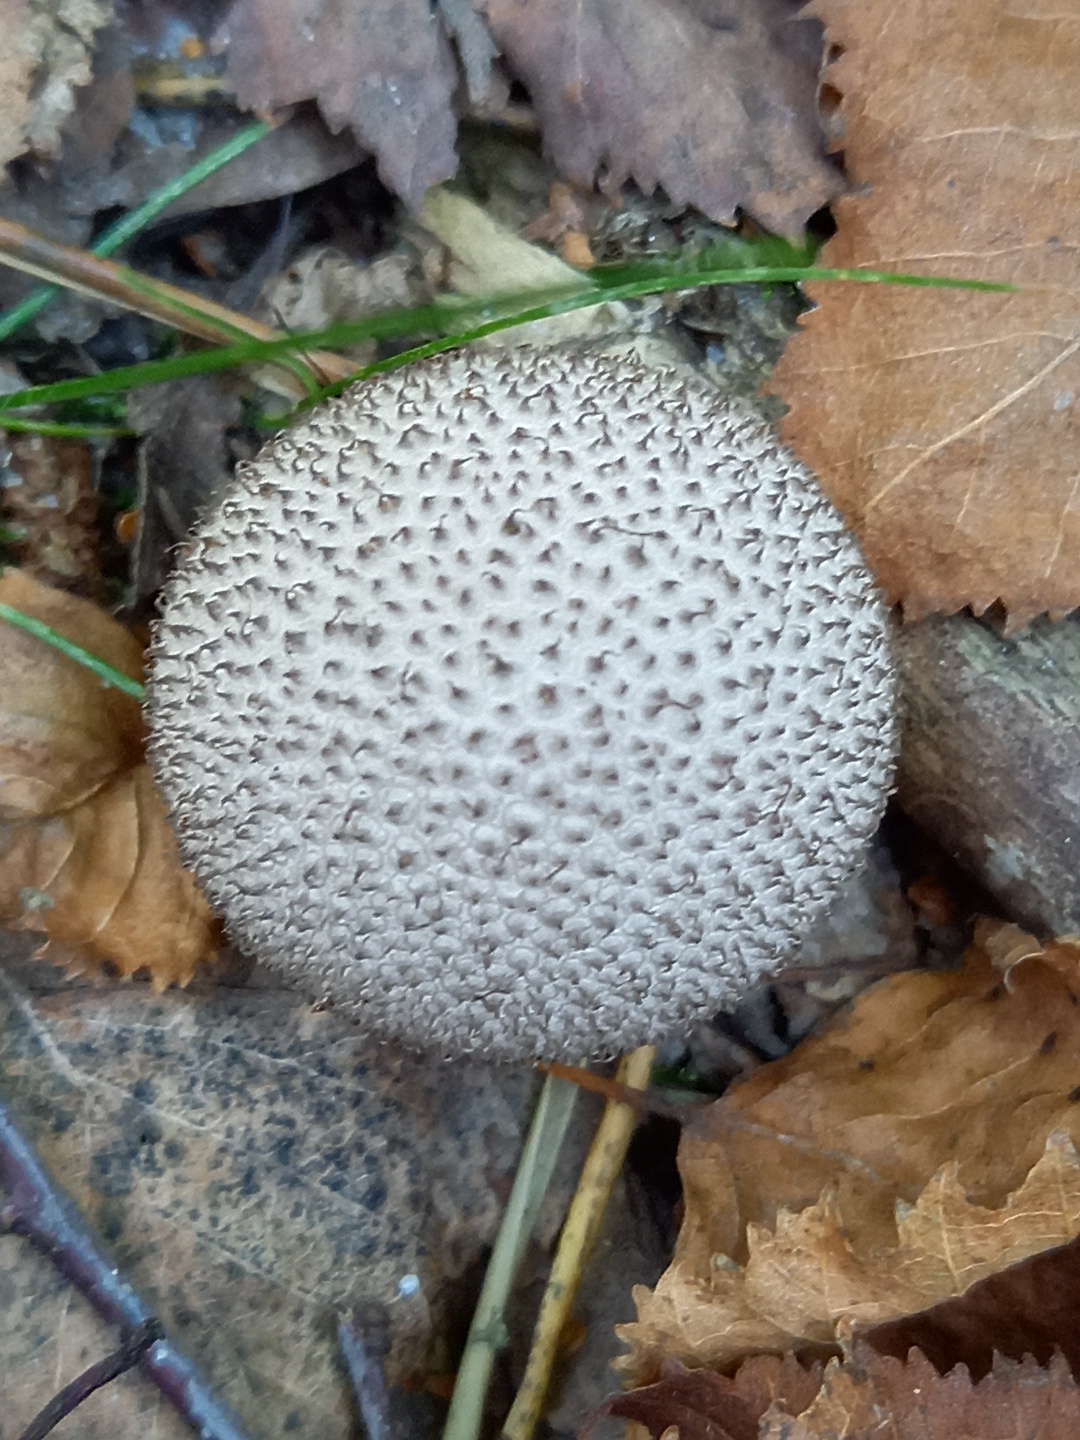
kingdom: Fungi
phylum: Basidiomycota
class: Agaricomycetes
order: Agaricales
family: Lycoperdaceae
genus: Lycoperdon
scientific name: Lycoperdon perlatum
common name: krystal-støvbold
